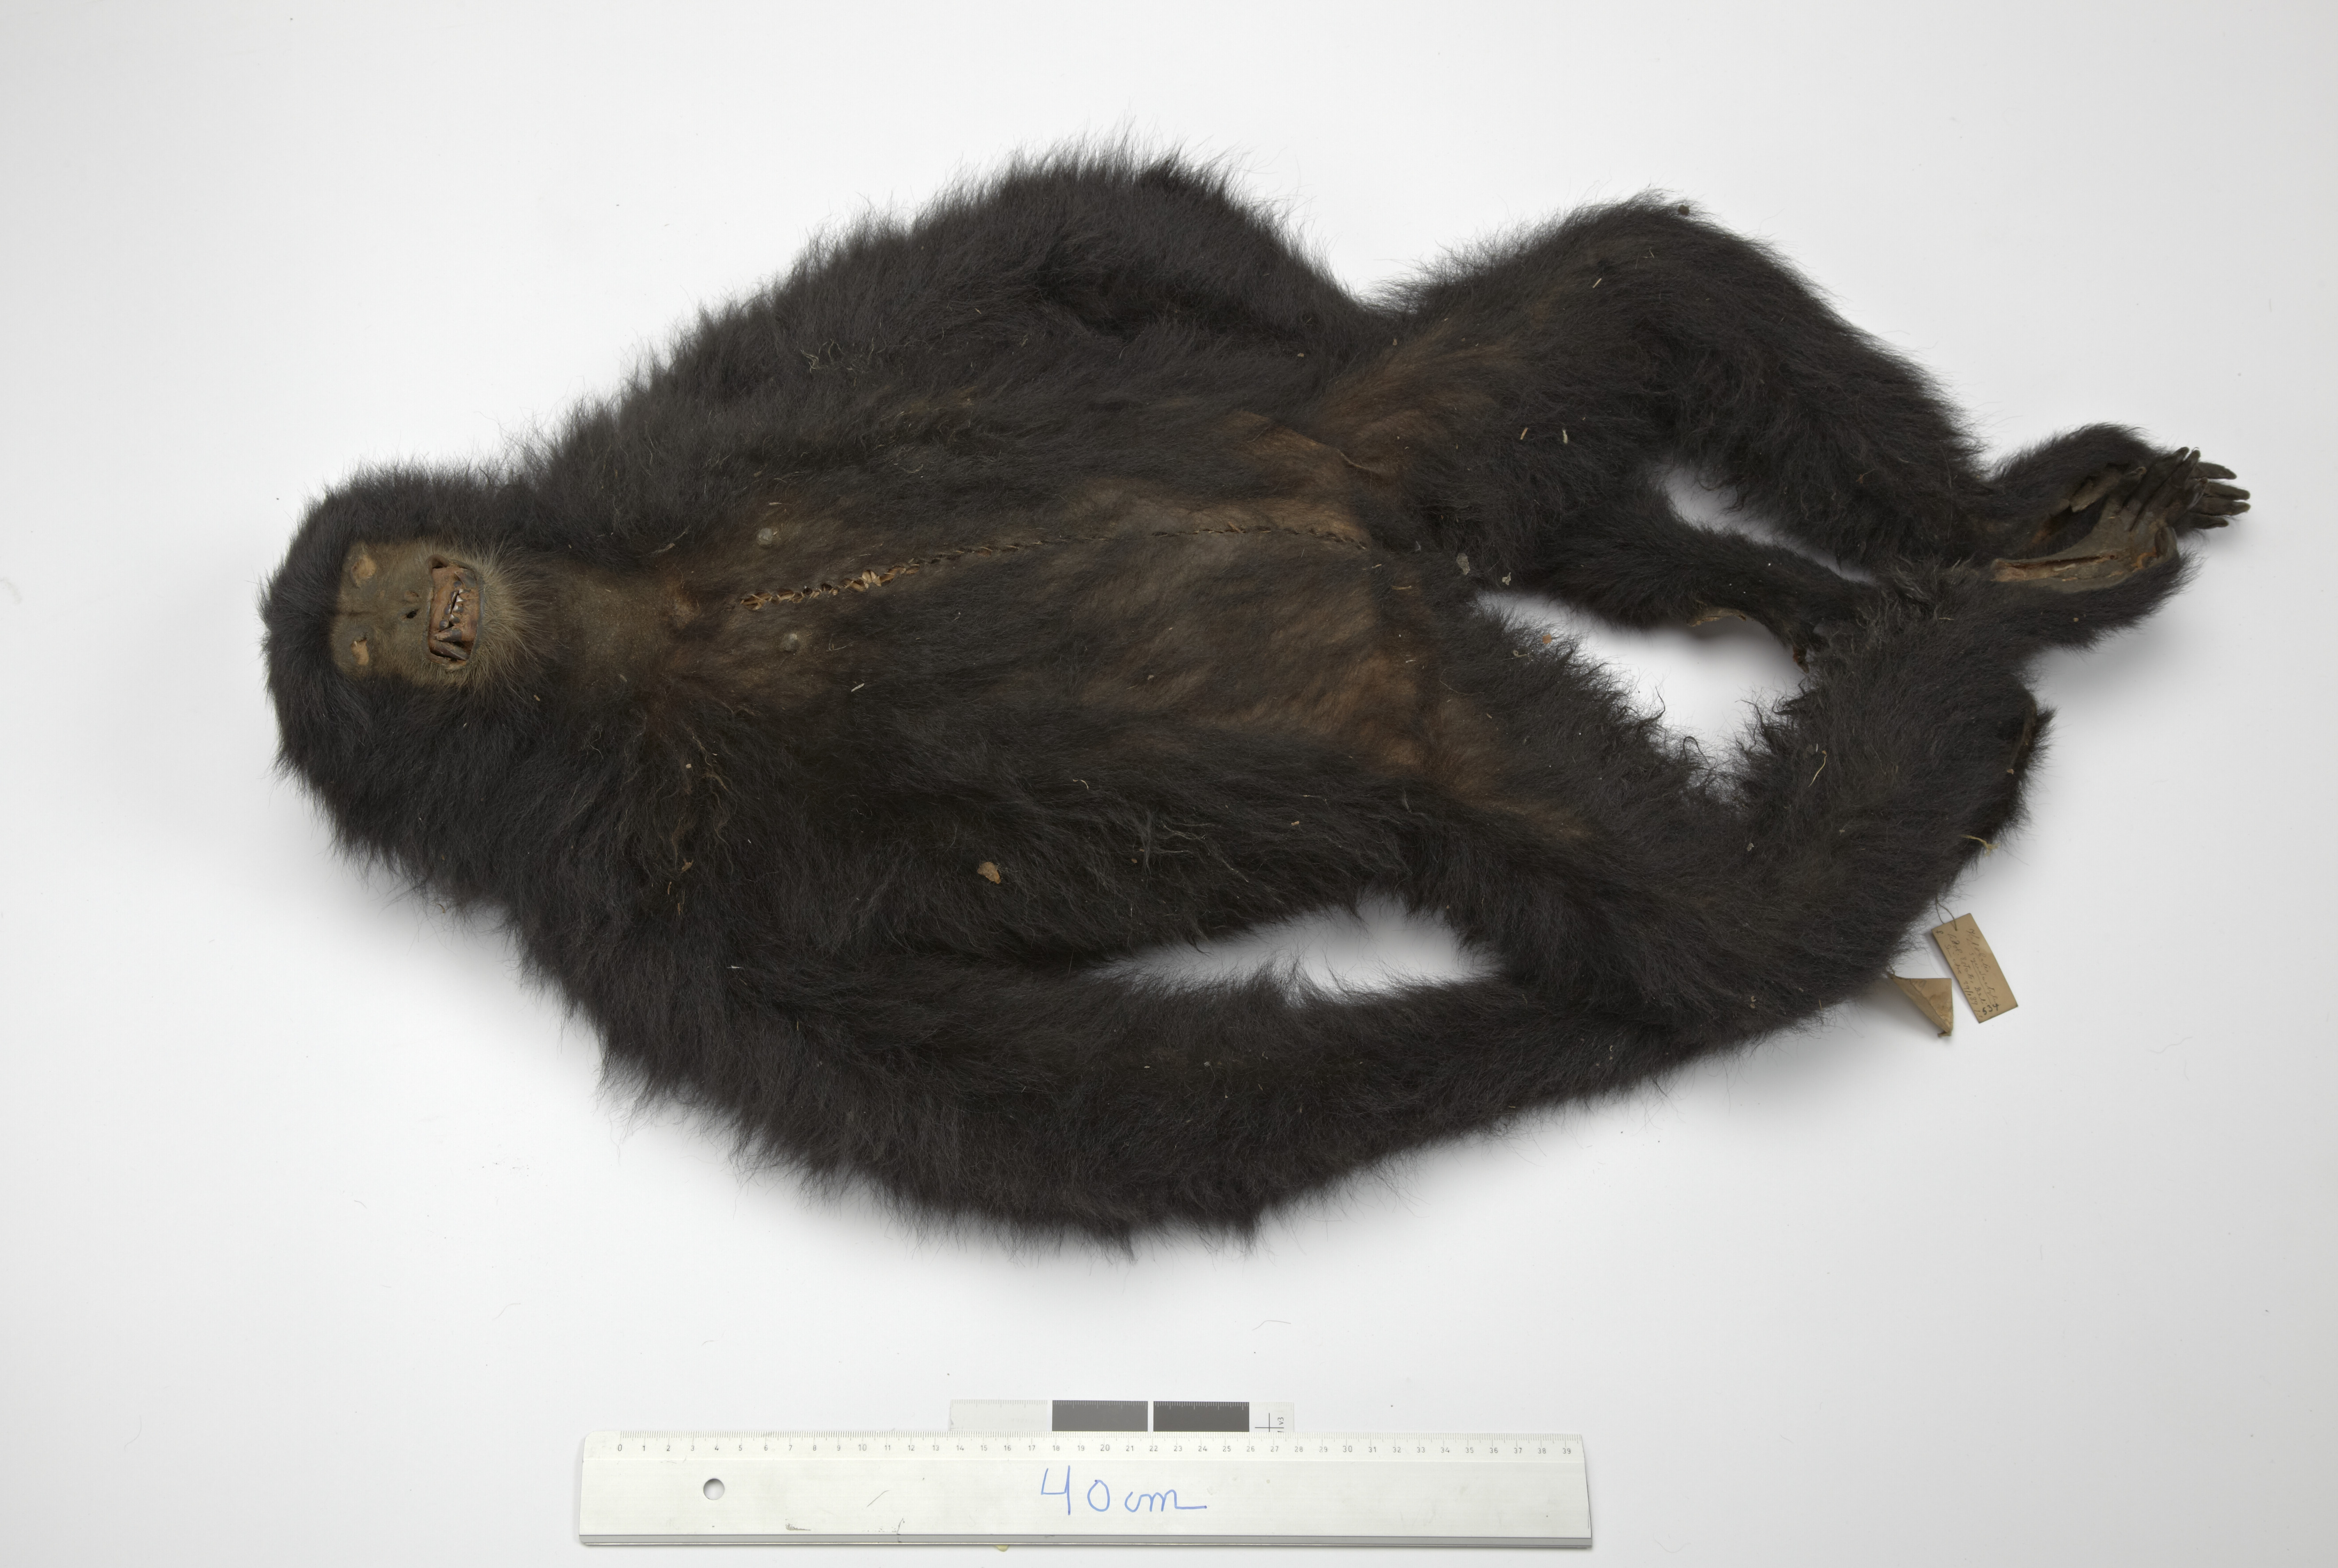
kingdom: Animalia
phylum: Chordata
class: Mammalia
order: Primates
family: Hylobatidae
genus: Symphalangus
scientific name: Symphalangus syndactylus
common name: Siamang
